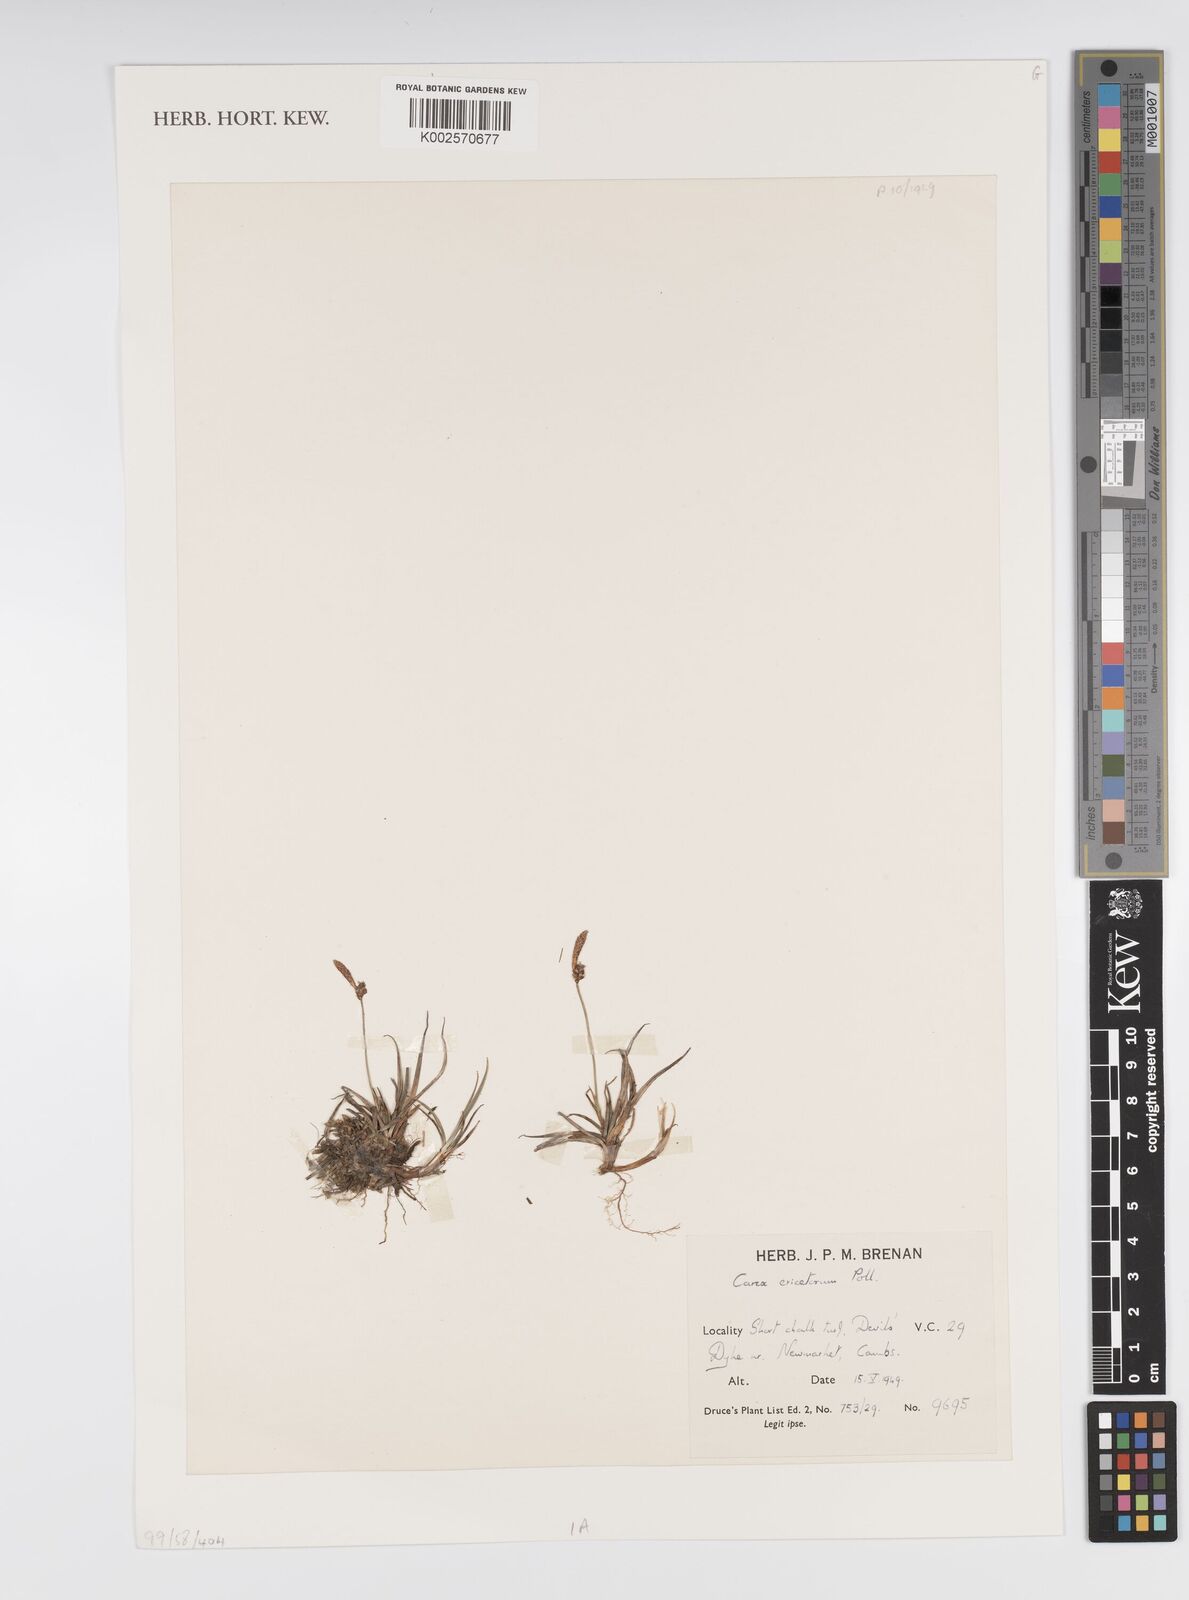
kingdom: Plantae
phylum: Tracheophyta
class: Liliopsida
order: Poales
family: Cyperaceae
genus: Carex
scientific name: Carex ericetorum
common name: Rare spring-sedge
